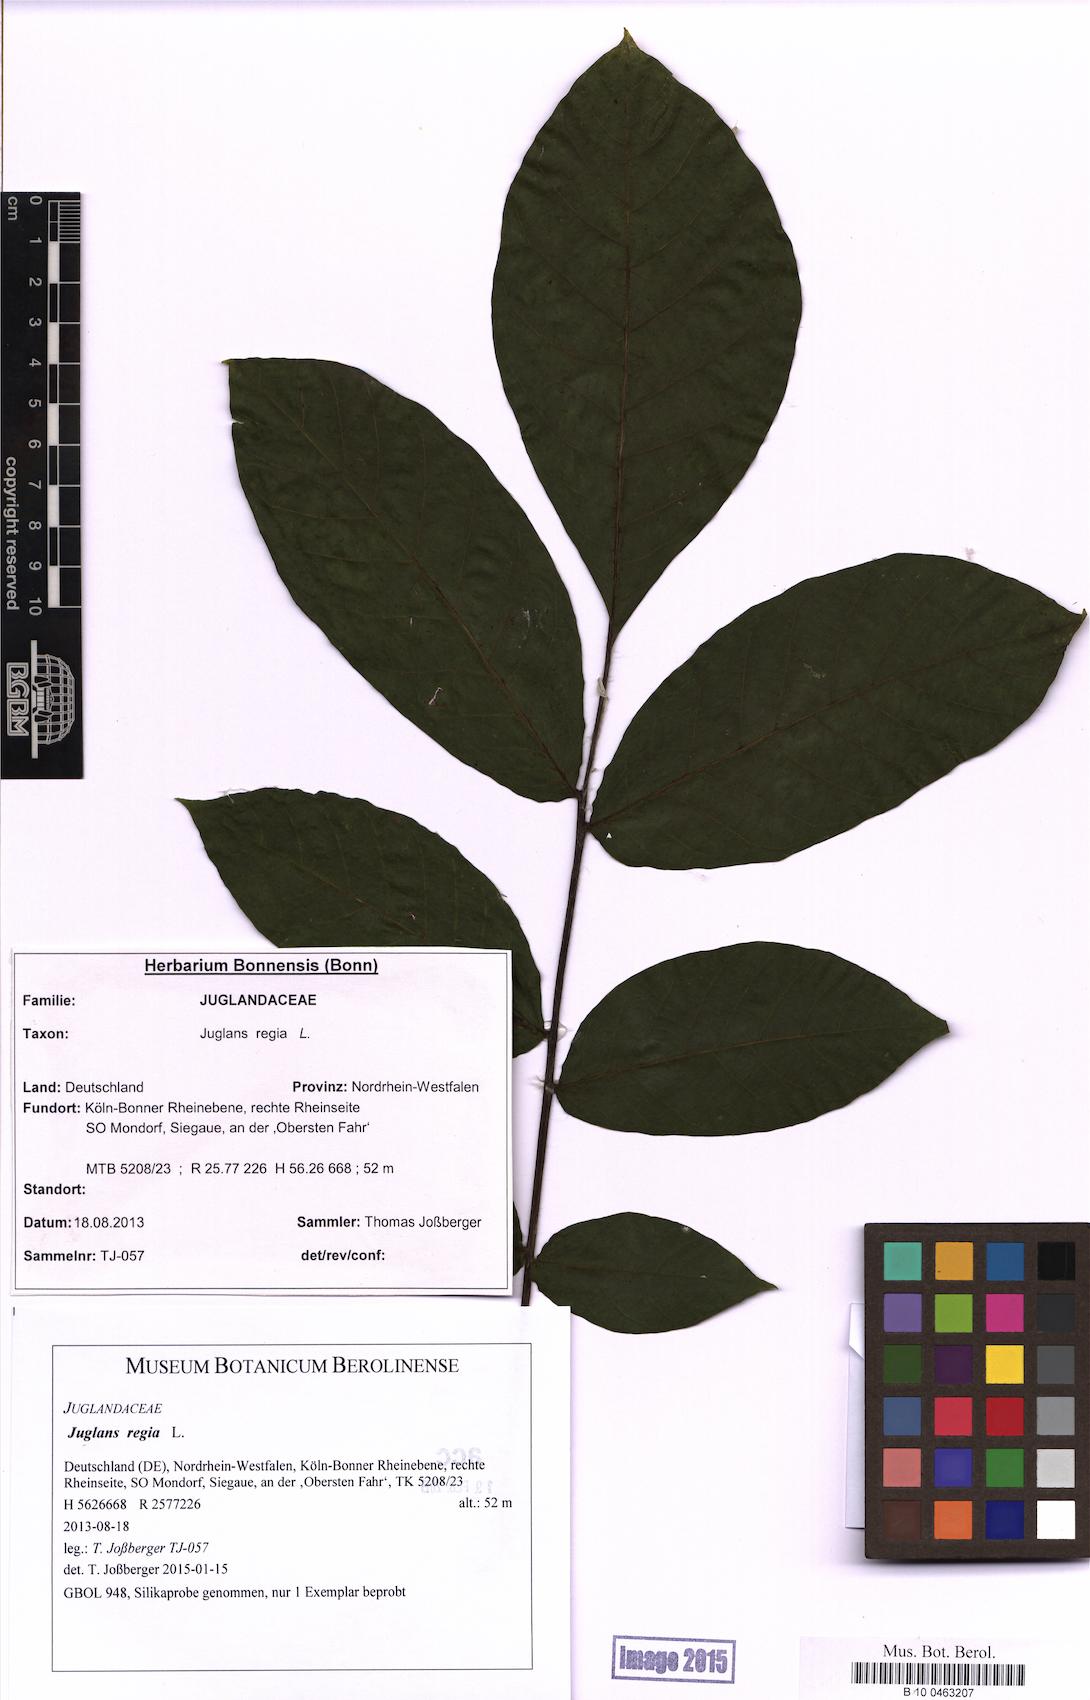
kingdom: Plantae
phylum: Tracheophyta
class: Magnoliopsida
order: Fagales
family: Juglandaceae
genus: Juglans
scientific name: Juglans regia
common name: Walnut
